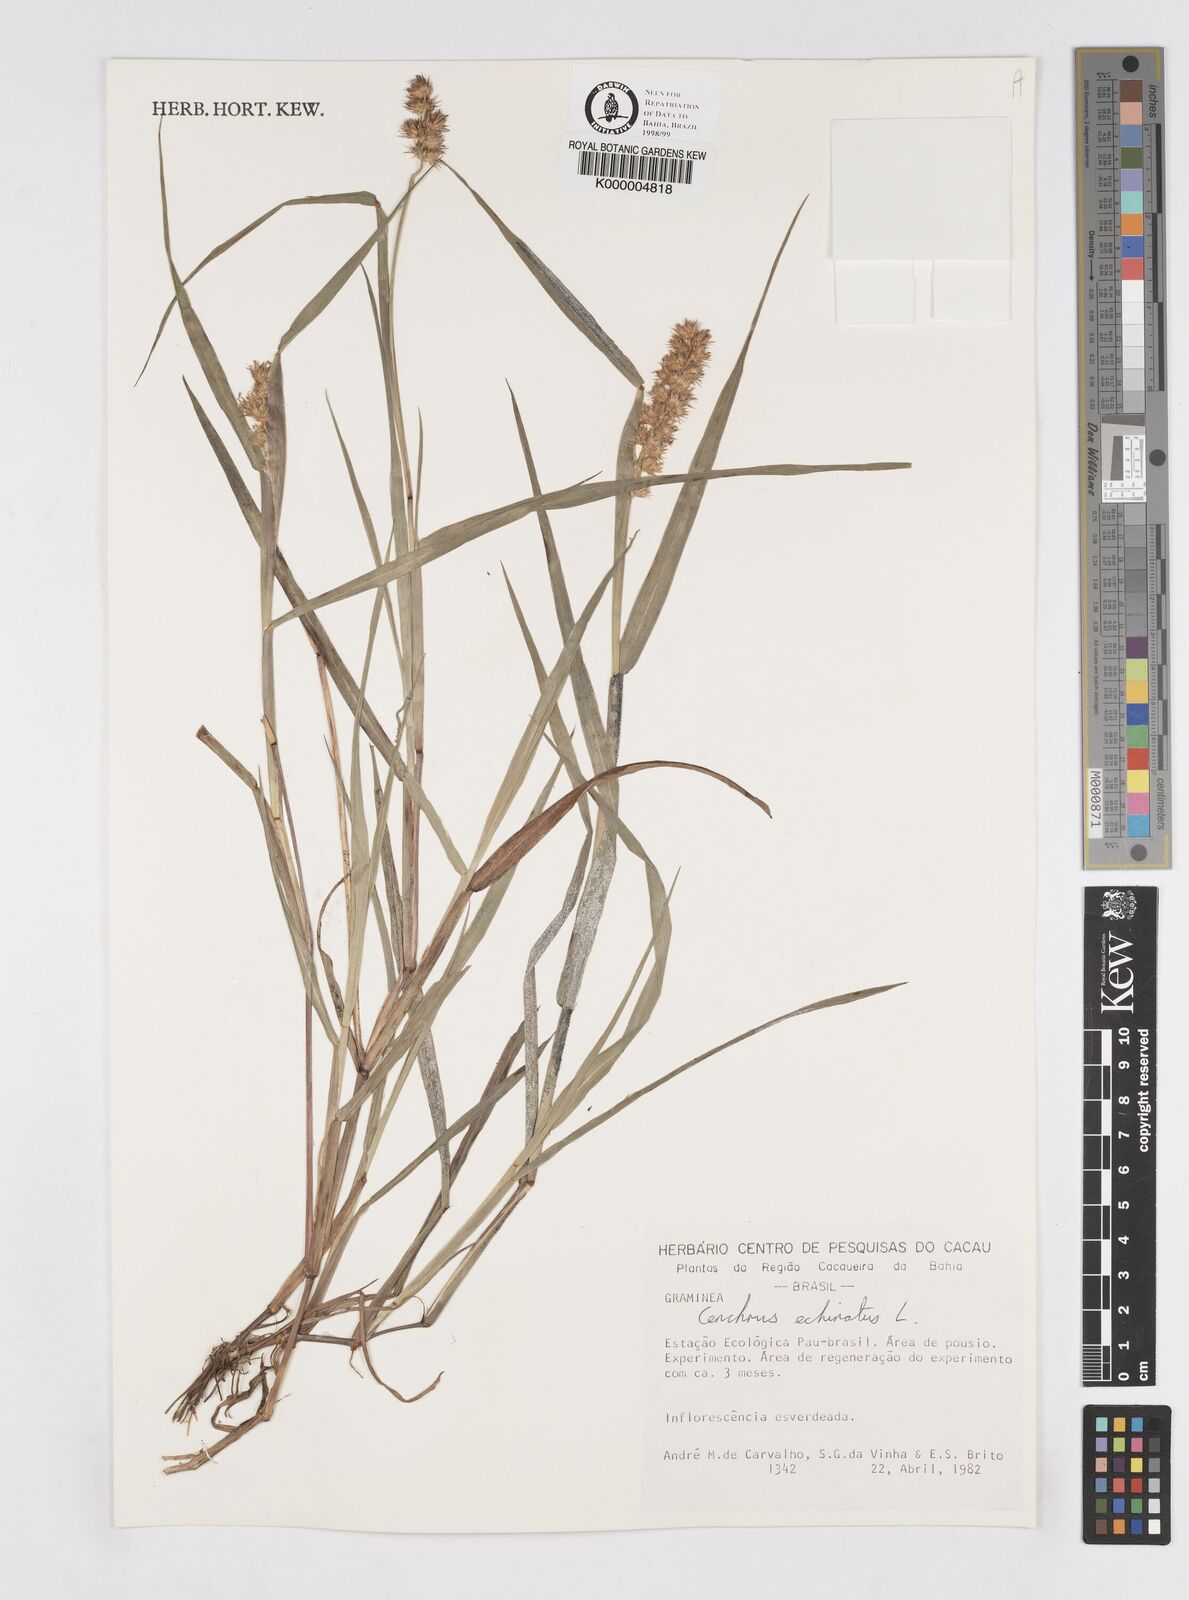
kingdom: Plantae
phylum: Tracheophyta
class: Liliopsida
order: Poales
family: Poaceae
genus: Cenchrus
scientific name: Cenchrus echinatus
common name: Southern sandbur
